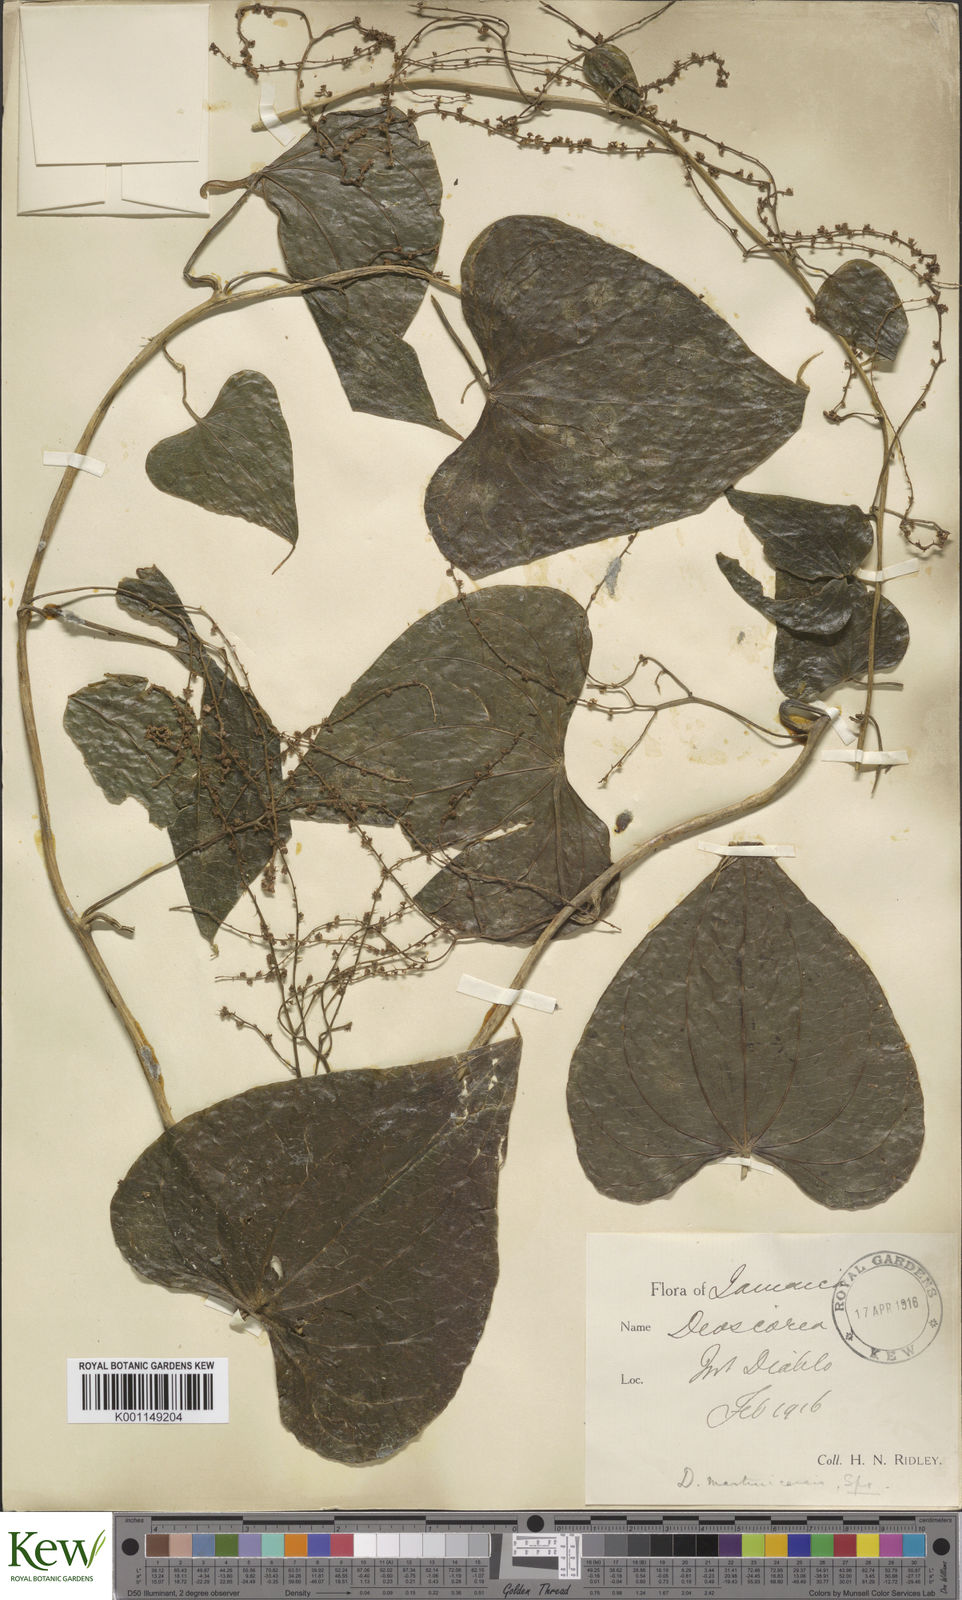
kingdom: Plantae
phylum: Tracheophyta
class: Liliopsida
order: Dioscoreales
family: Dioscoreaceae
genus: Dioscorea
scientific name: Dioscorea polygonoides
